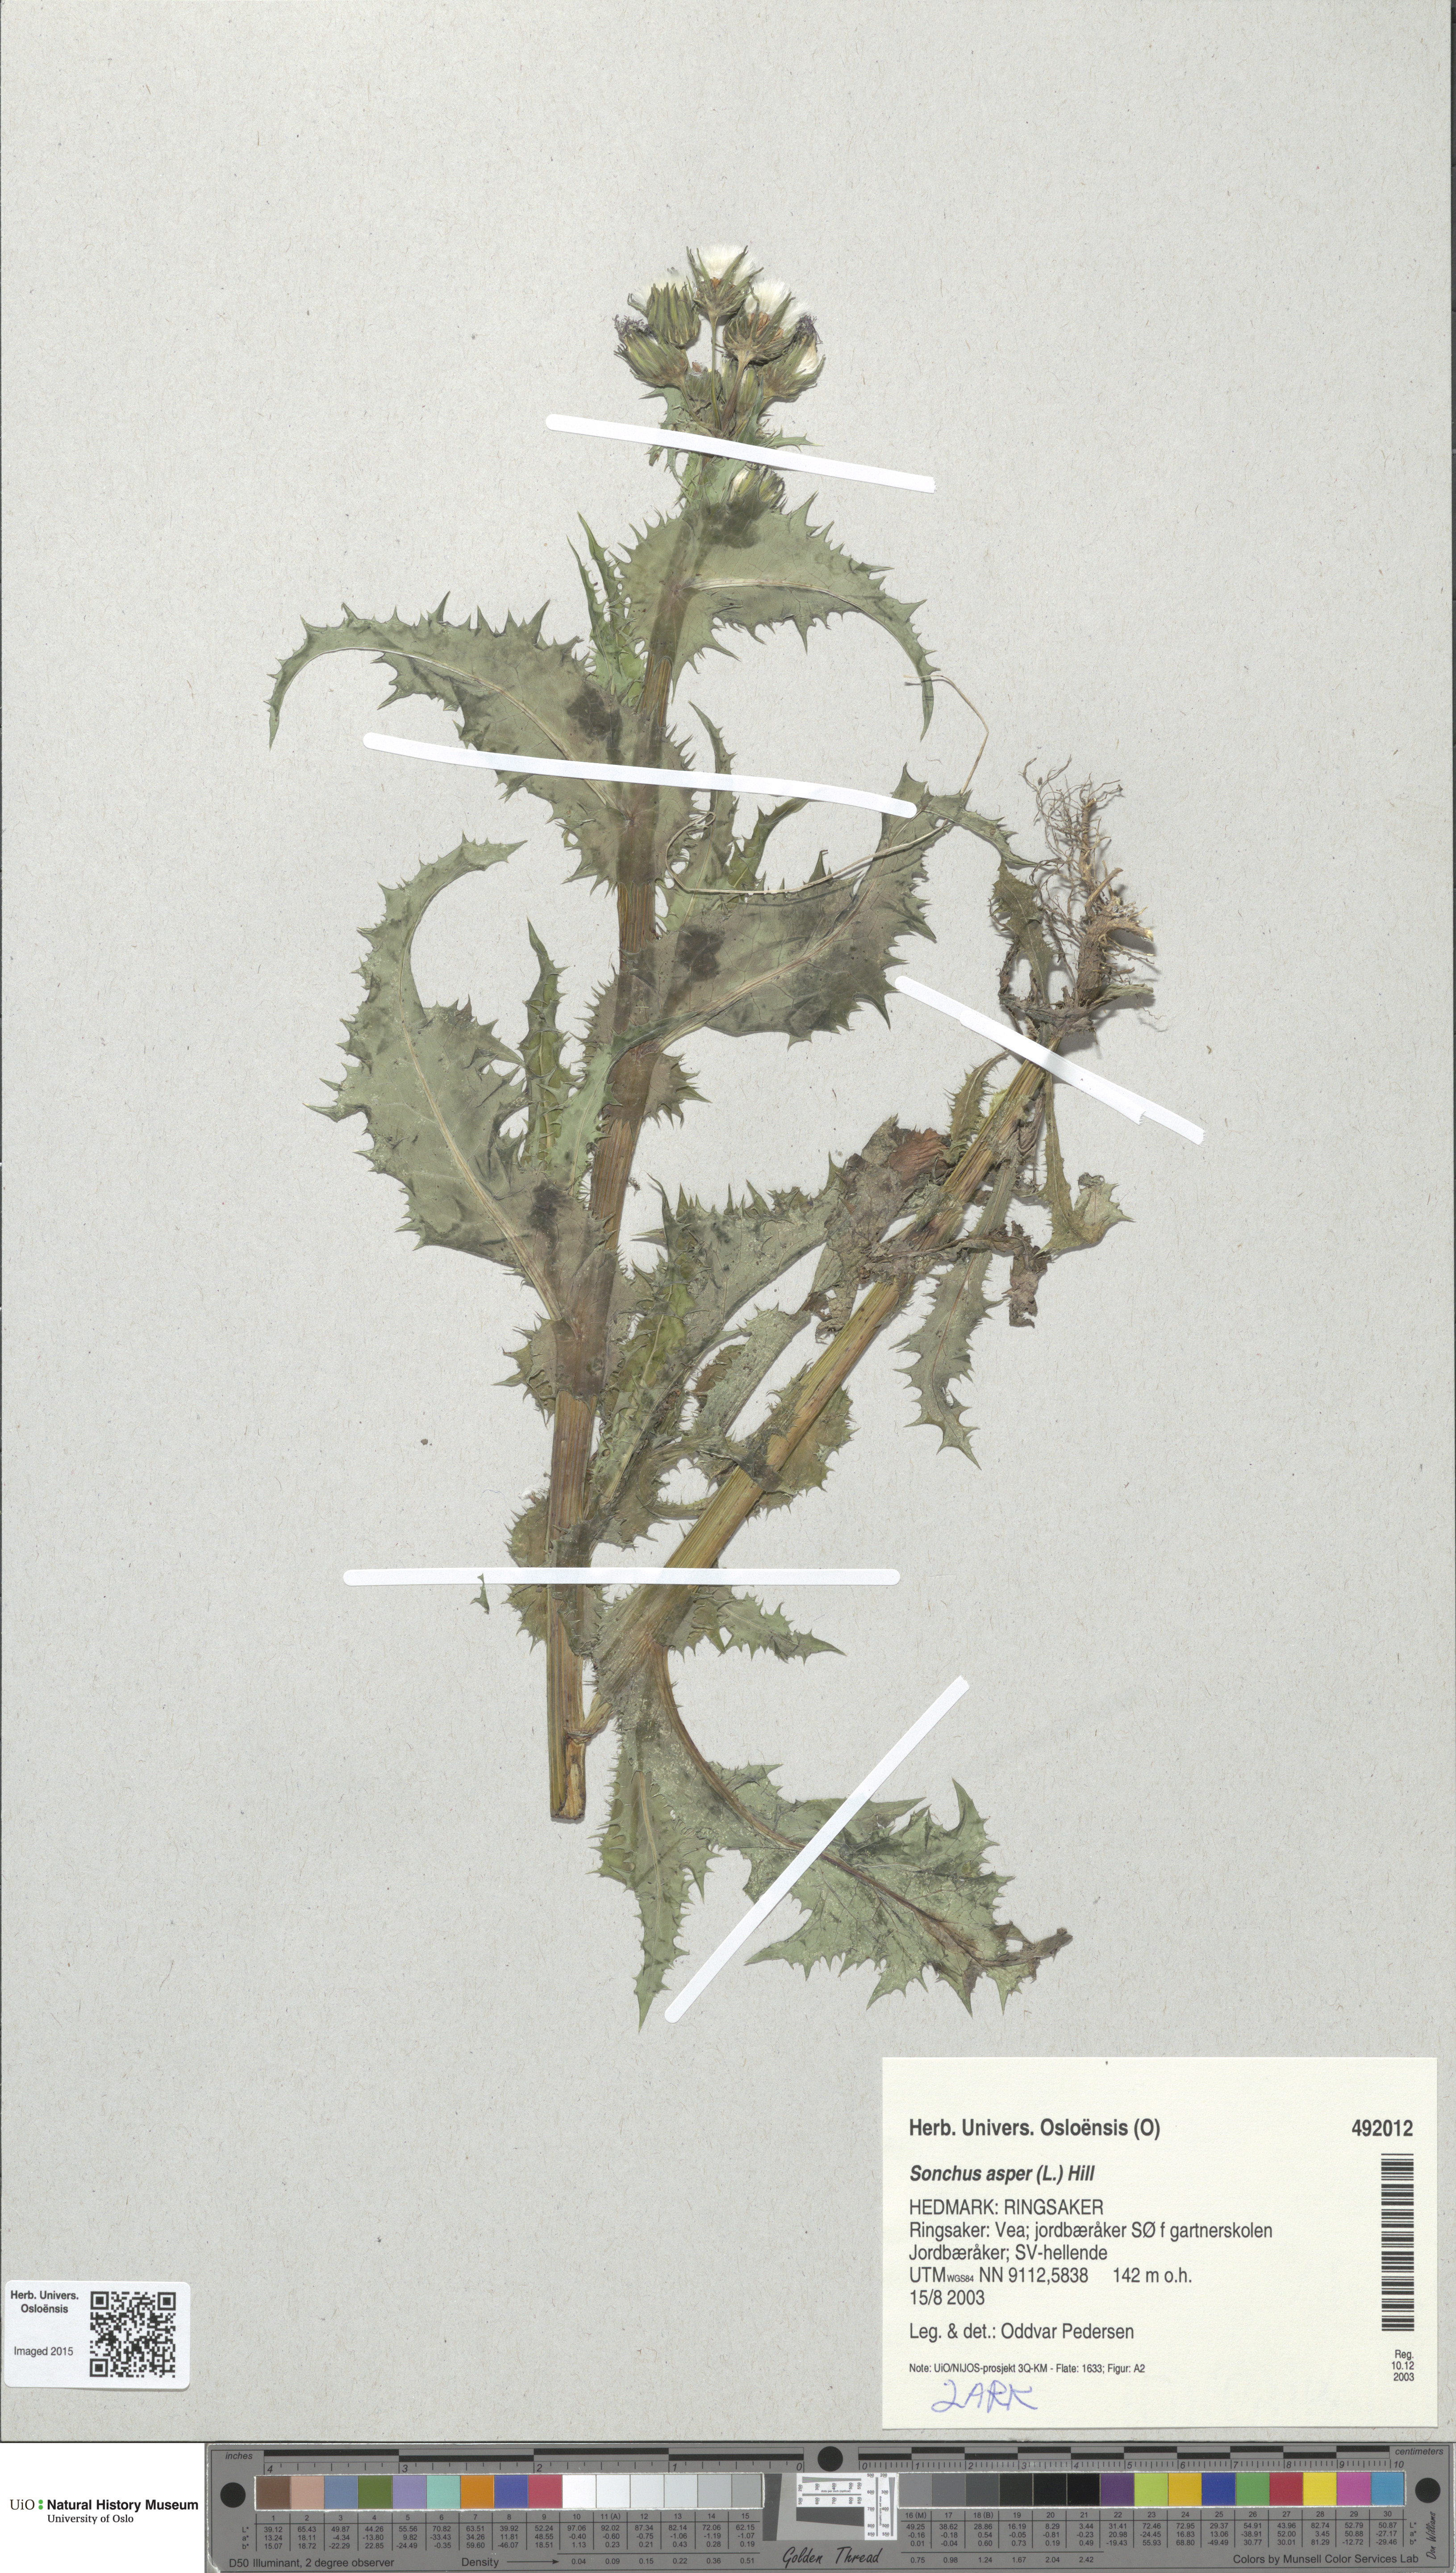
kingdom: Plantae
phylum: Tracheophyta
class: Magnoliopsida
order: Asterales
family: Asteraceae
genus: Sonchus
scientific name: Sonchus asper
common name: Prickly sow-thistle
